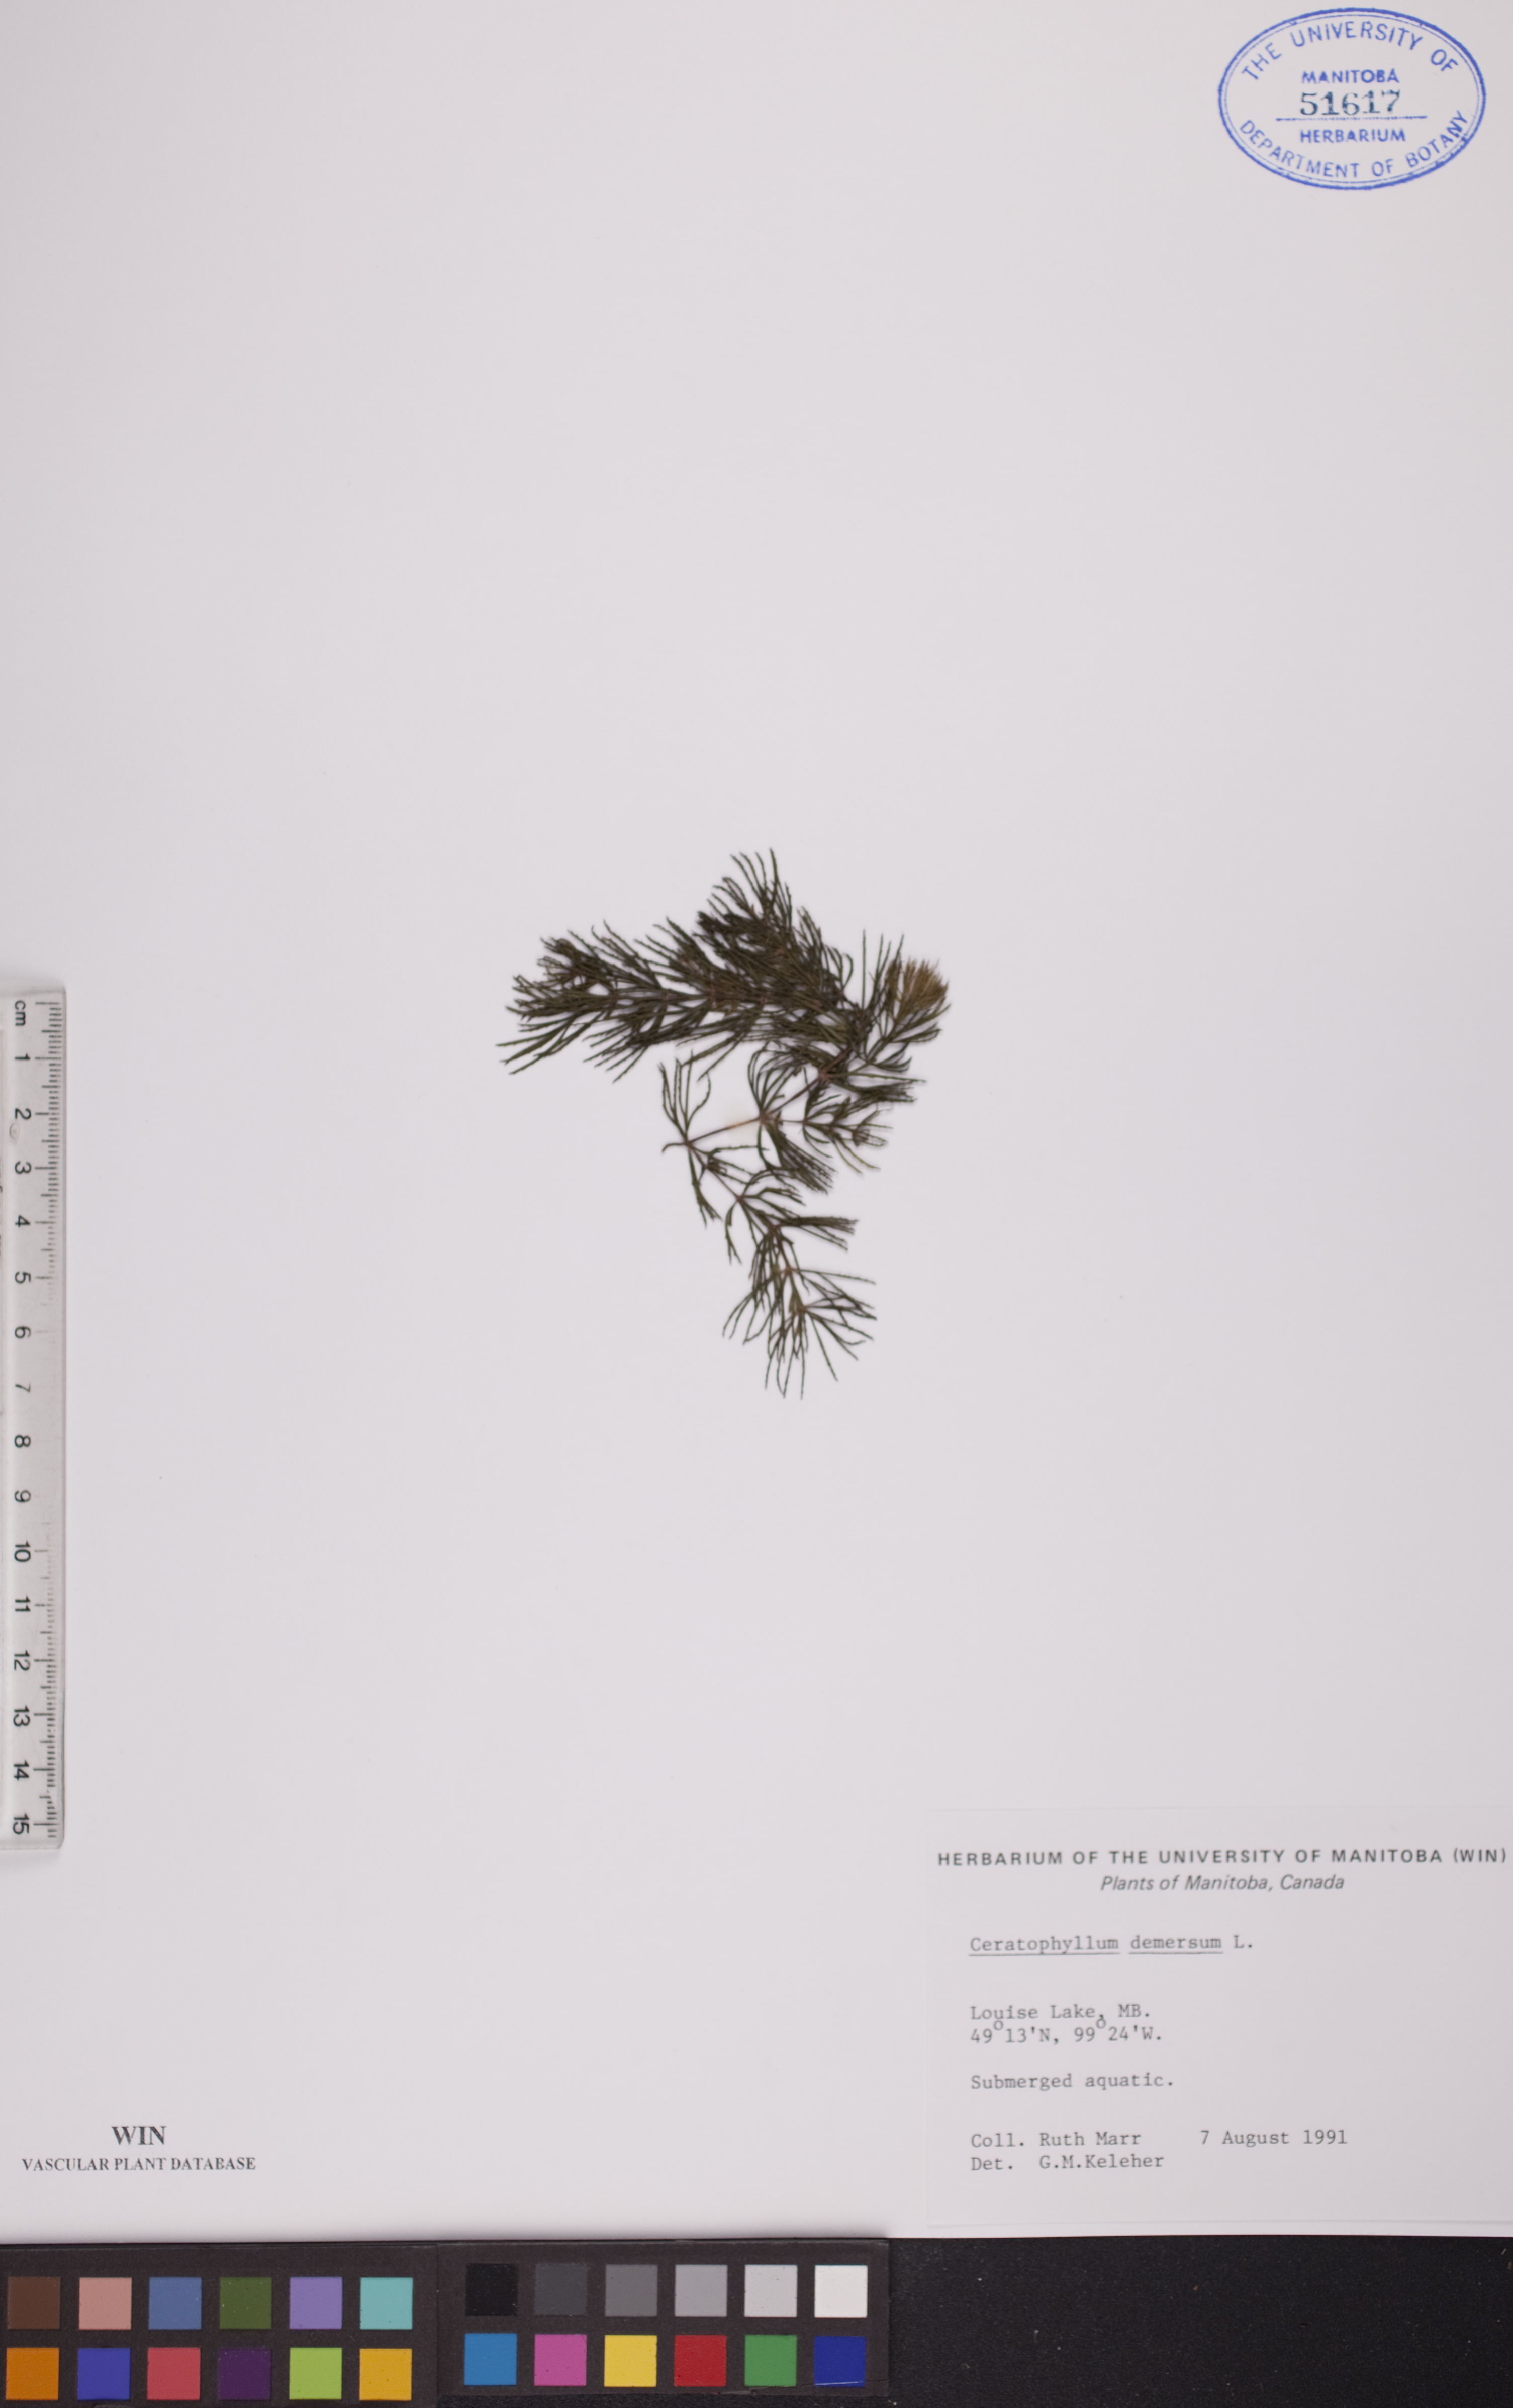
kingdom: Plantae
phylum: Tracheophyta
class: Magnoliopsida
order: Ceratophyllales
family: Ceratophyllaceae
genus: Ceratophyllum
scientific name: Ceratophyllum demersum
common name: Rigid hornwort
